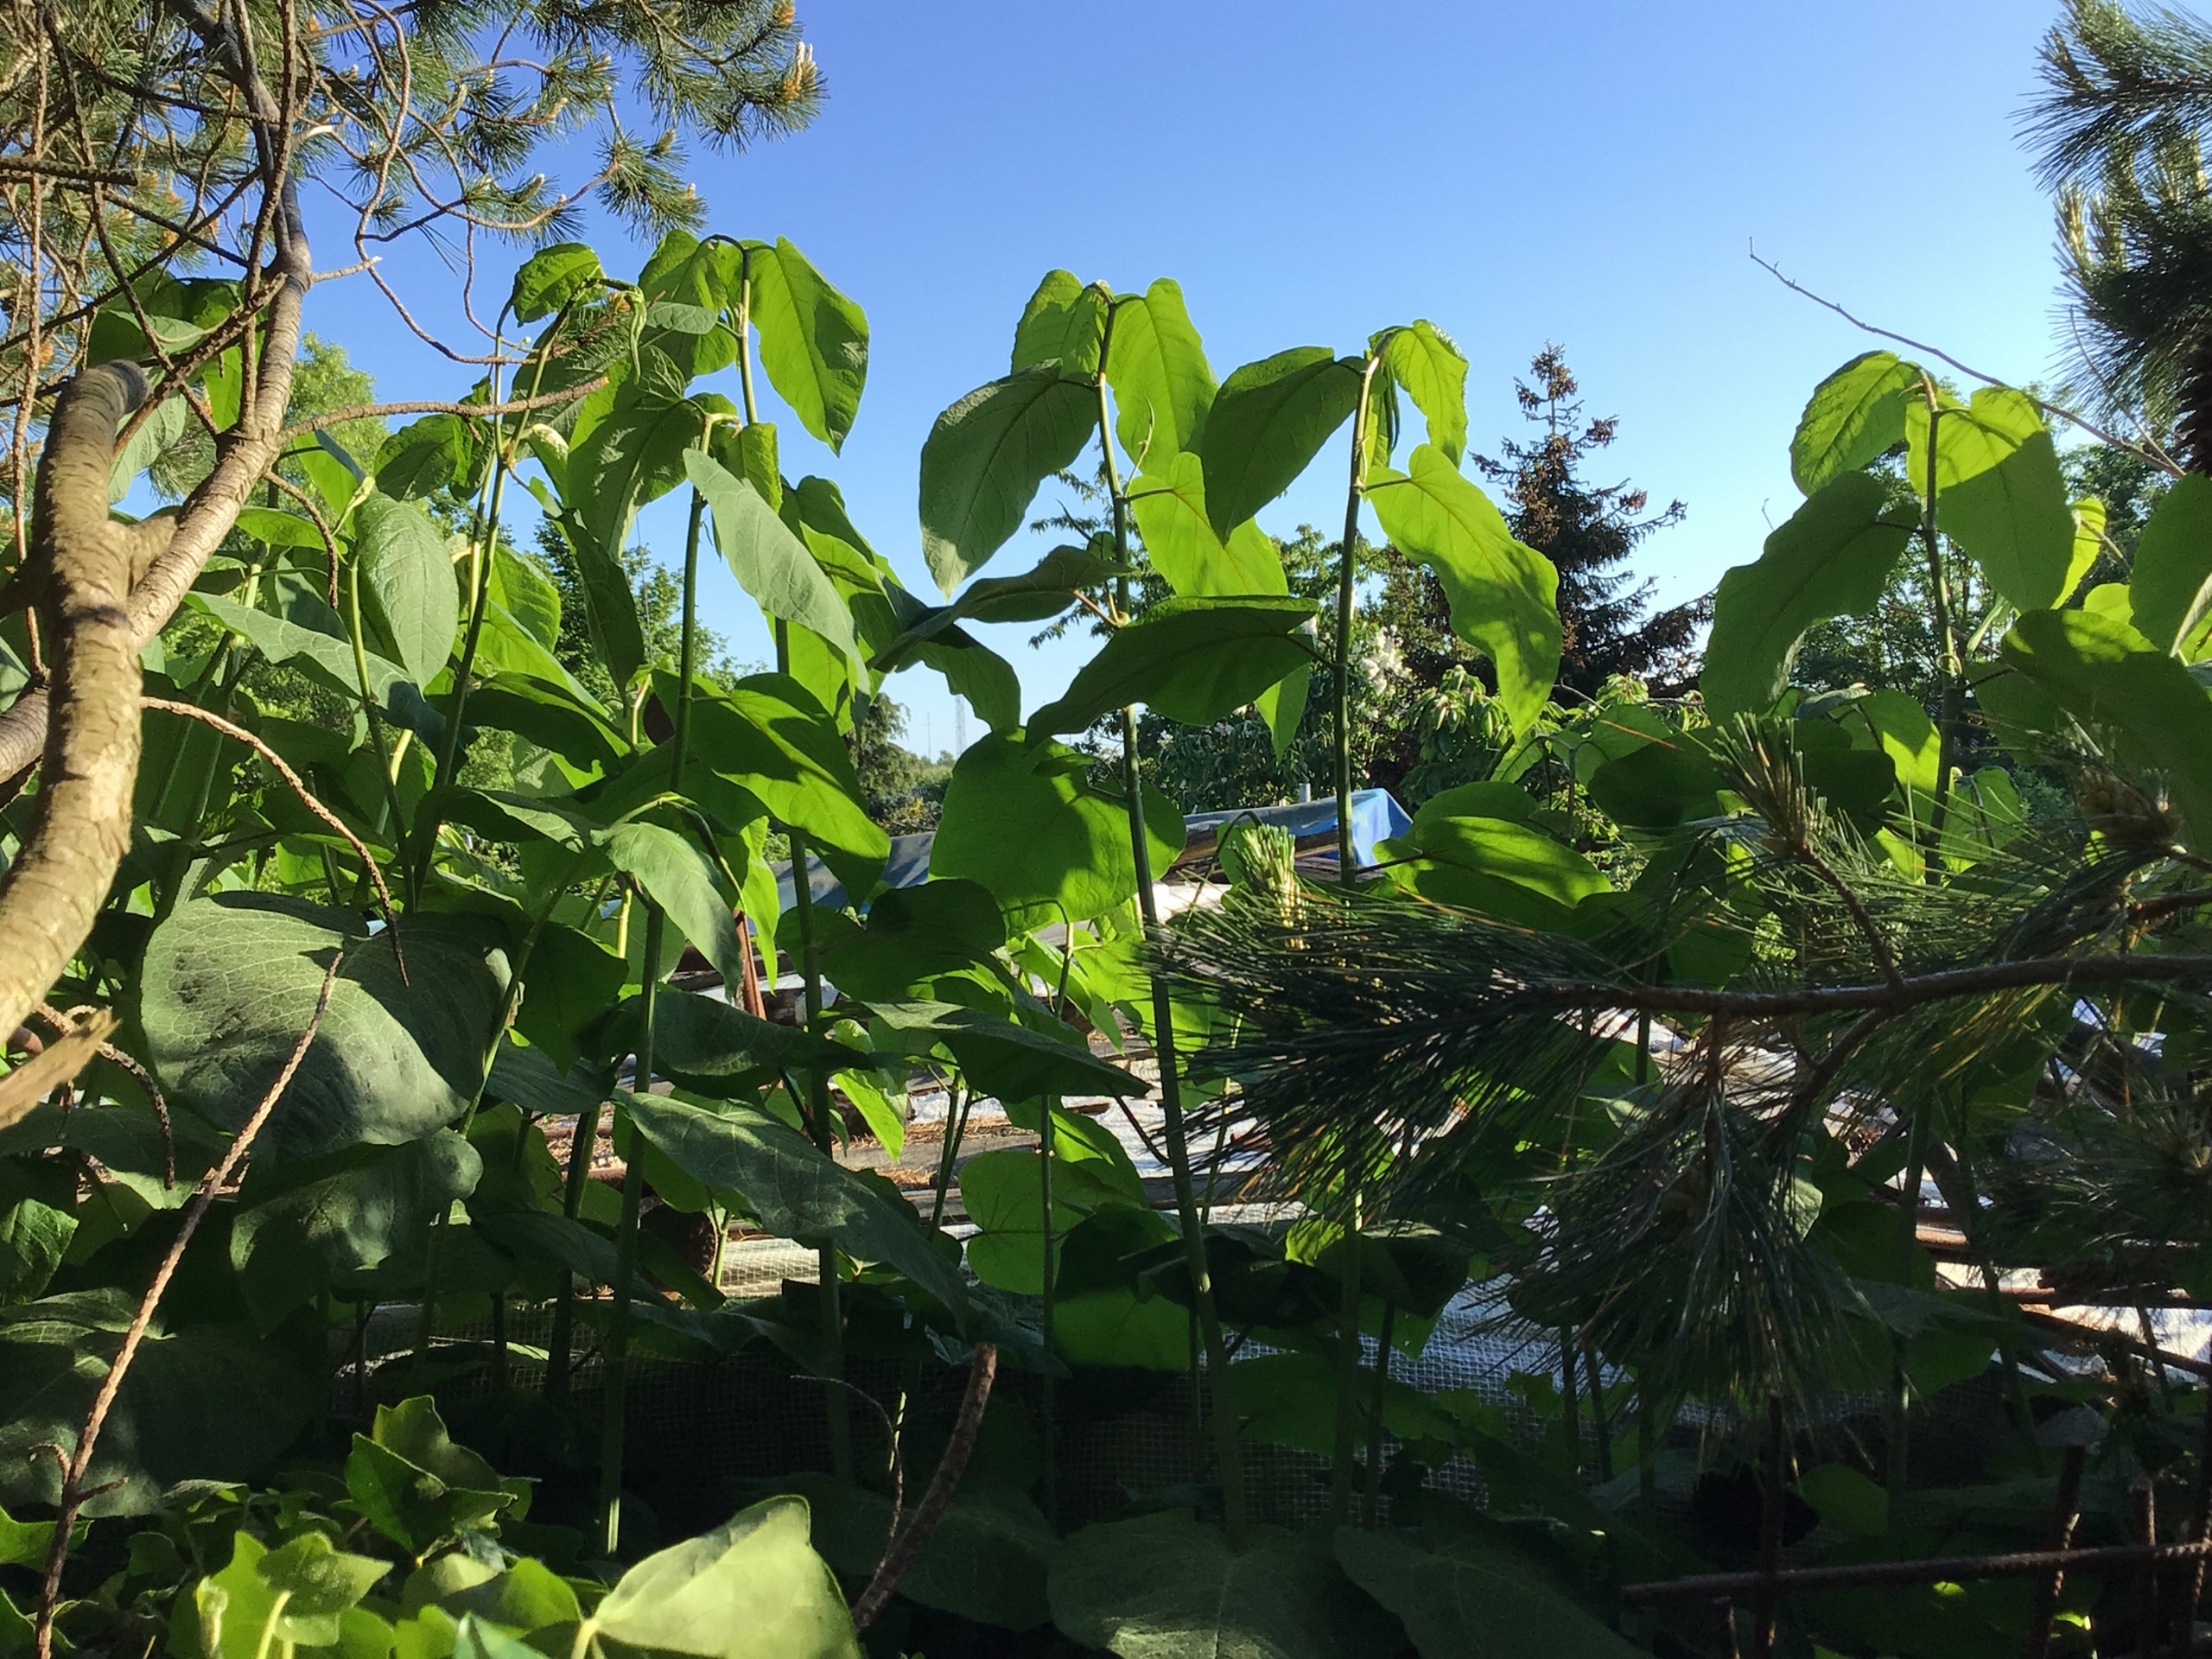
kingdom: Plantae
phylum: Tracheophyta
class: Magnoliopsida
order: Caryophyllales
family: Polygonaceae
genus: Reynoutria
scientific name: Reynoutria sachalinensis
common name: Kæmpe-pileurt
